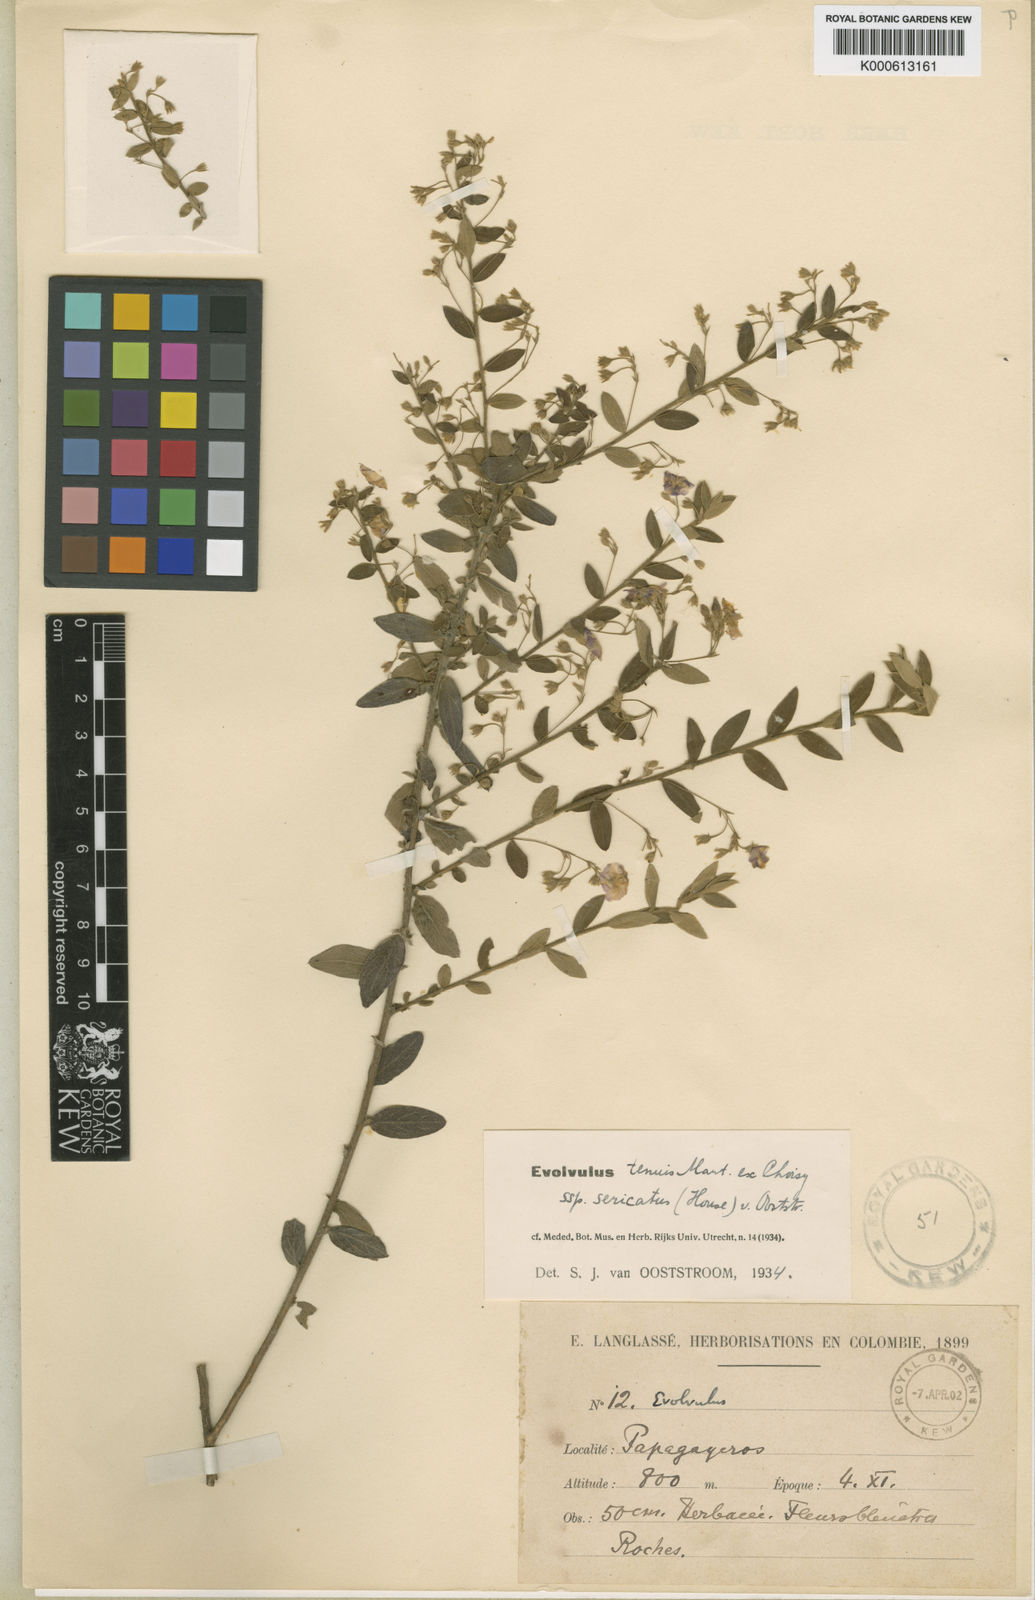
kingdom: Plantae
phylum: Tracheophyta
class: Magnoliopsida
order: Solanales
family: Convolvulaceae
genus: Evolvulus
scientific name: Evolvulus tenuis
